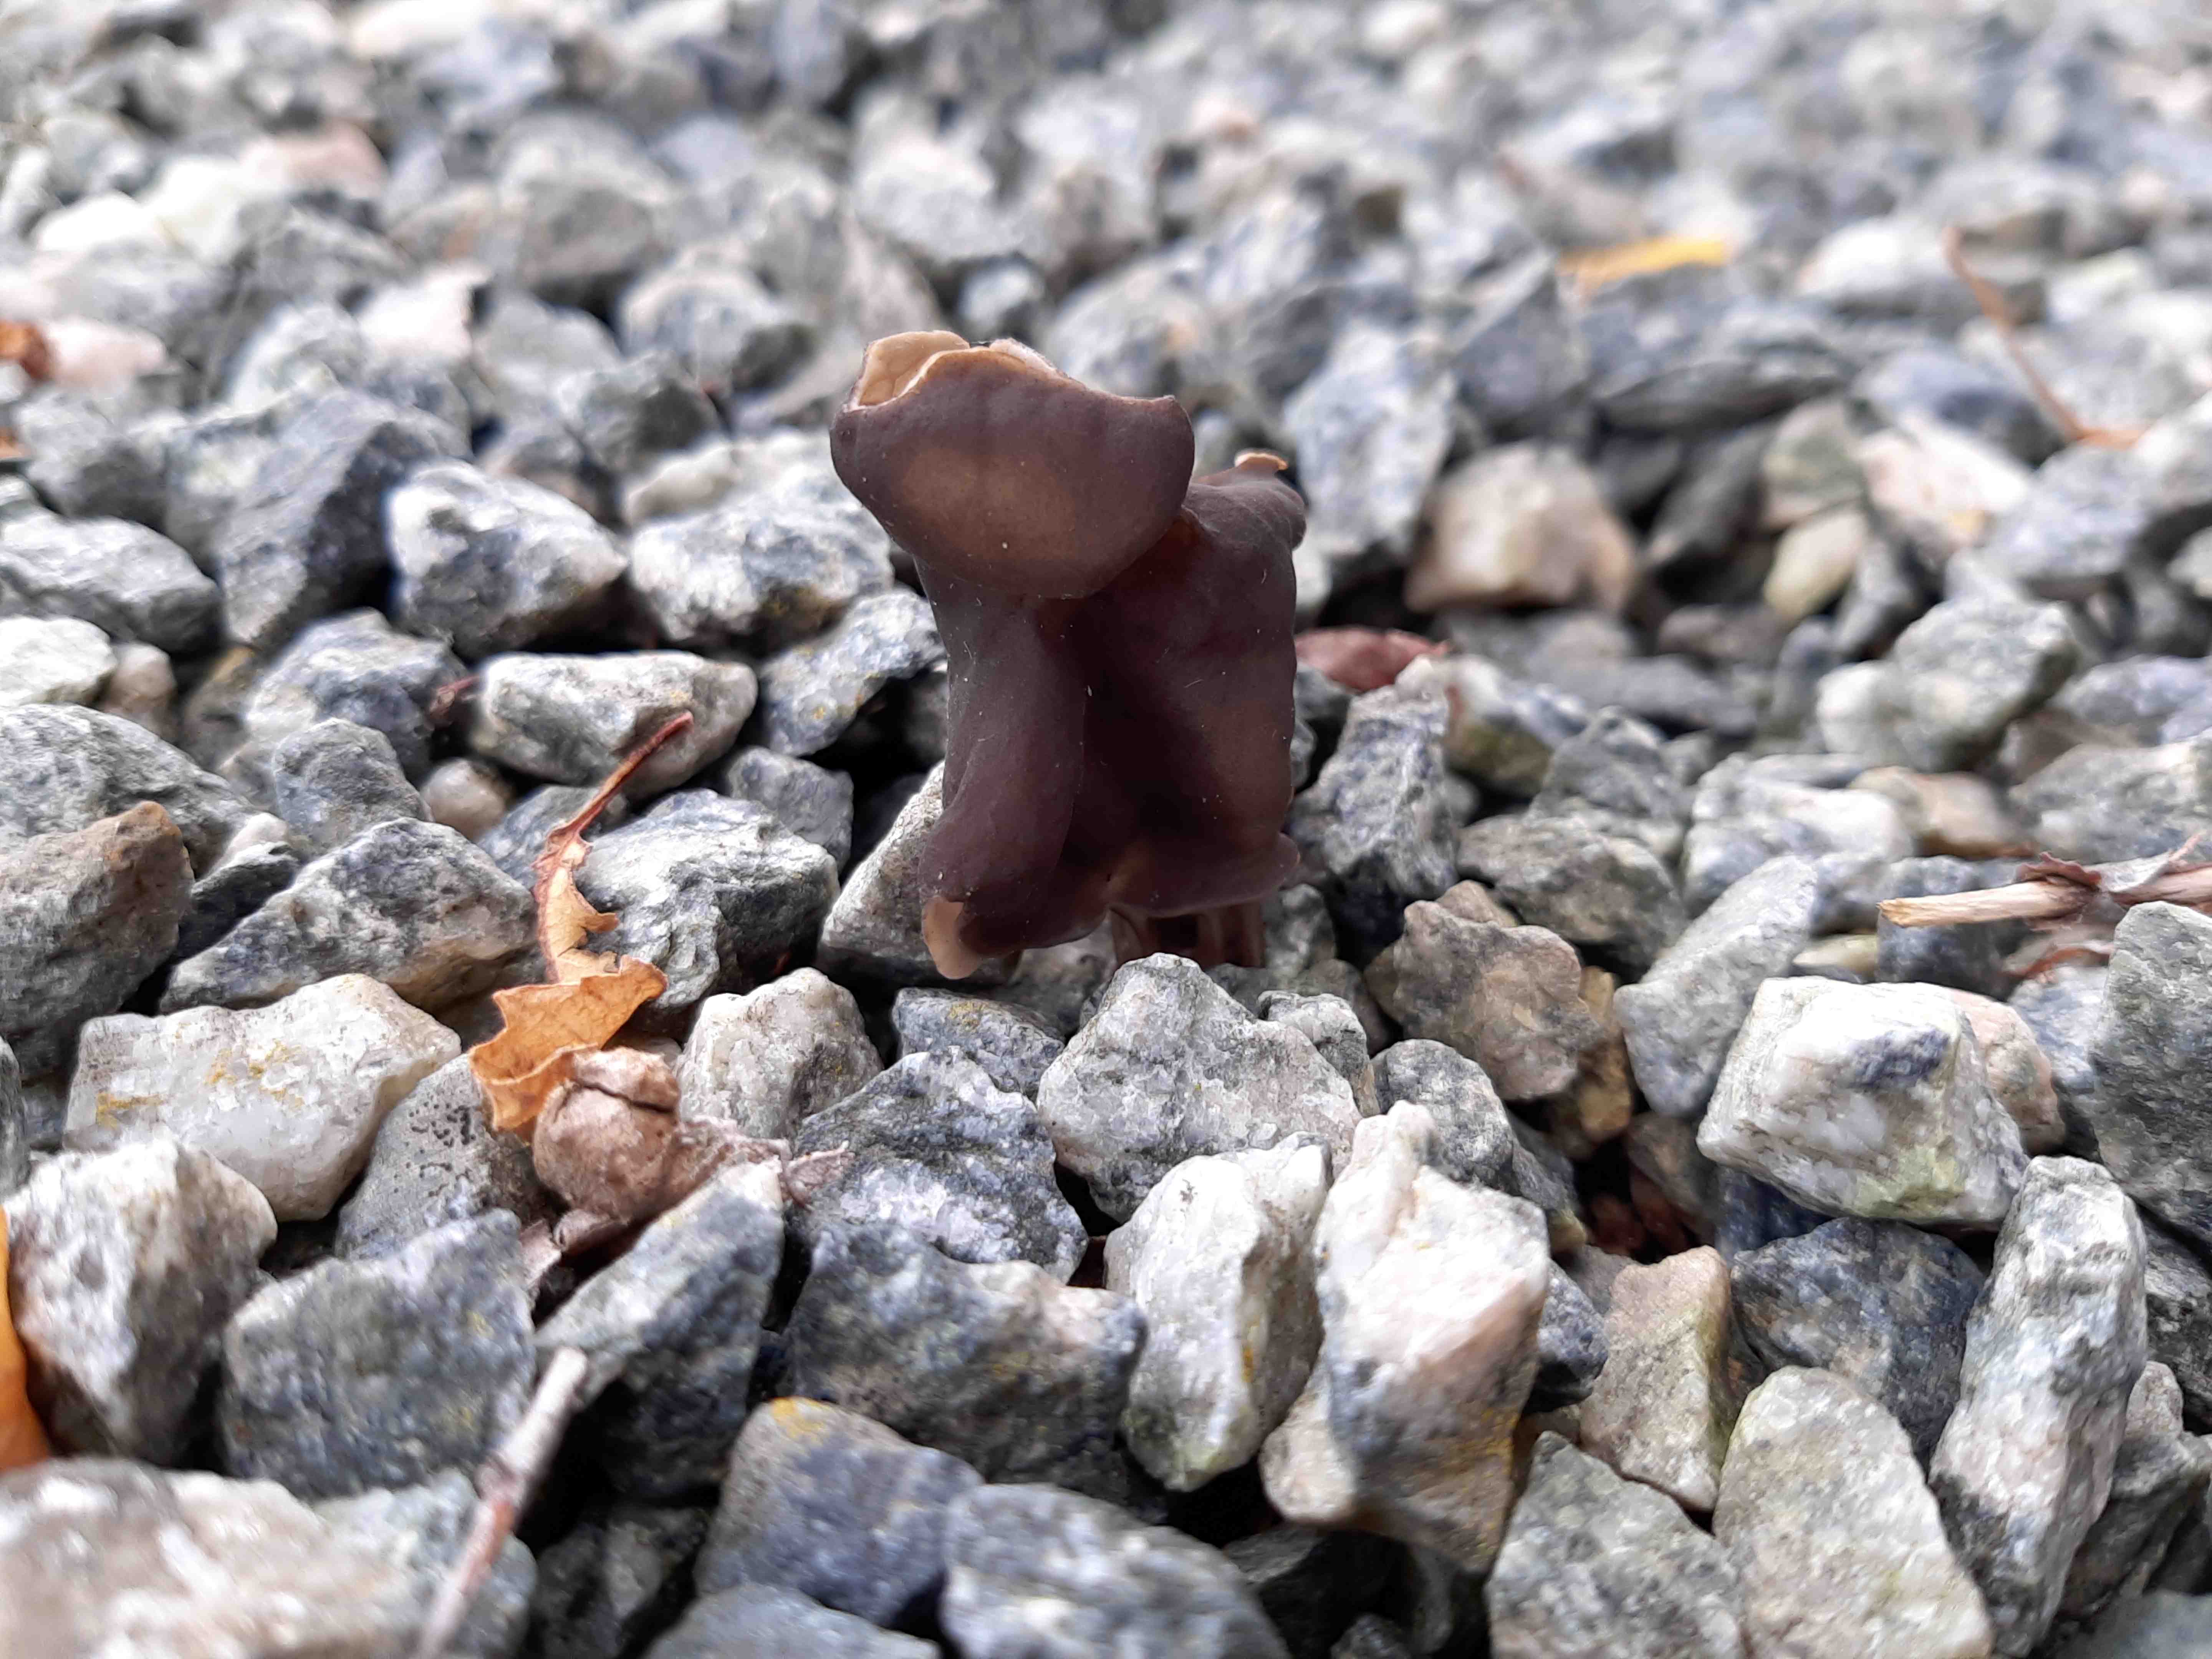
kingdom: Fungi
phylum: Ascomycota
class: Pezizomycetes
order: Pezizales
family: Helvellaceae
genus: Helvella
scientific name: Helvella lacunosa
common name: grubet foldhat
